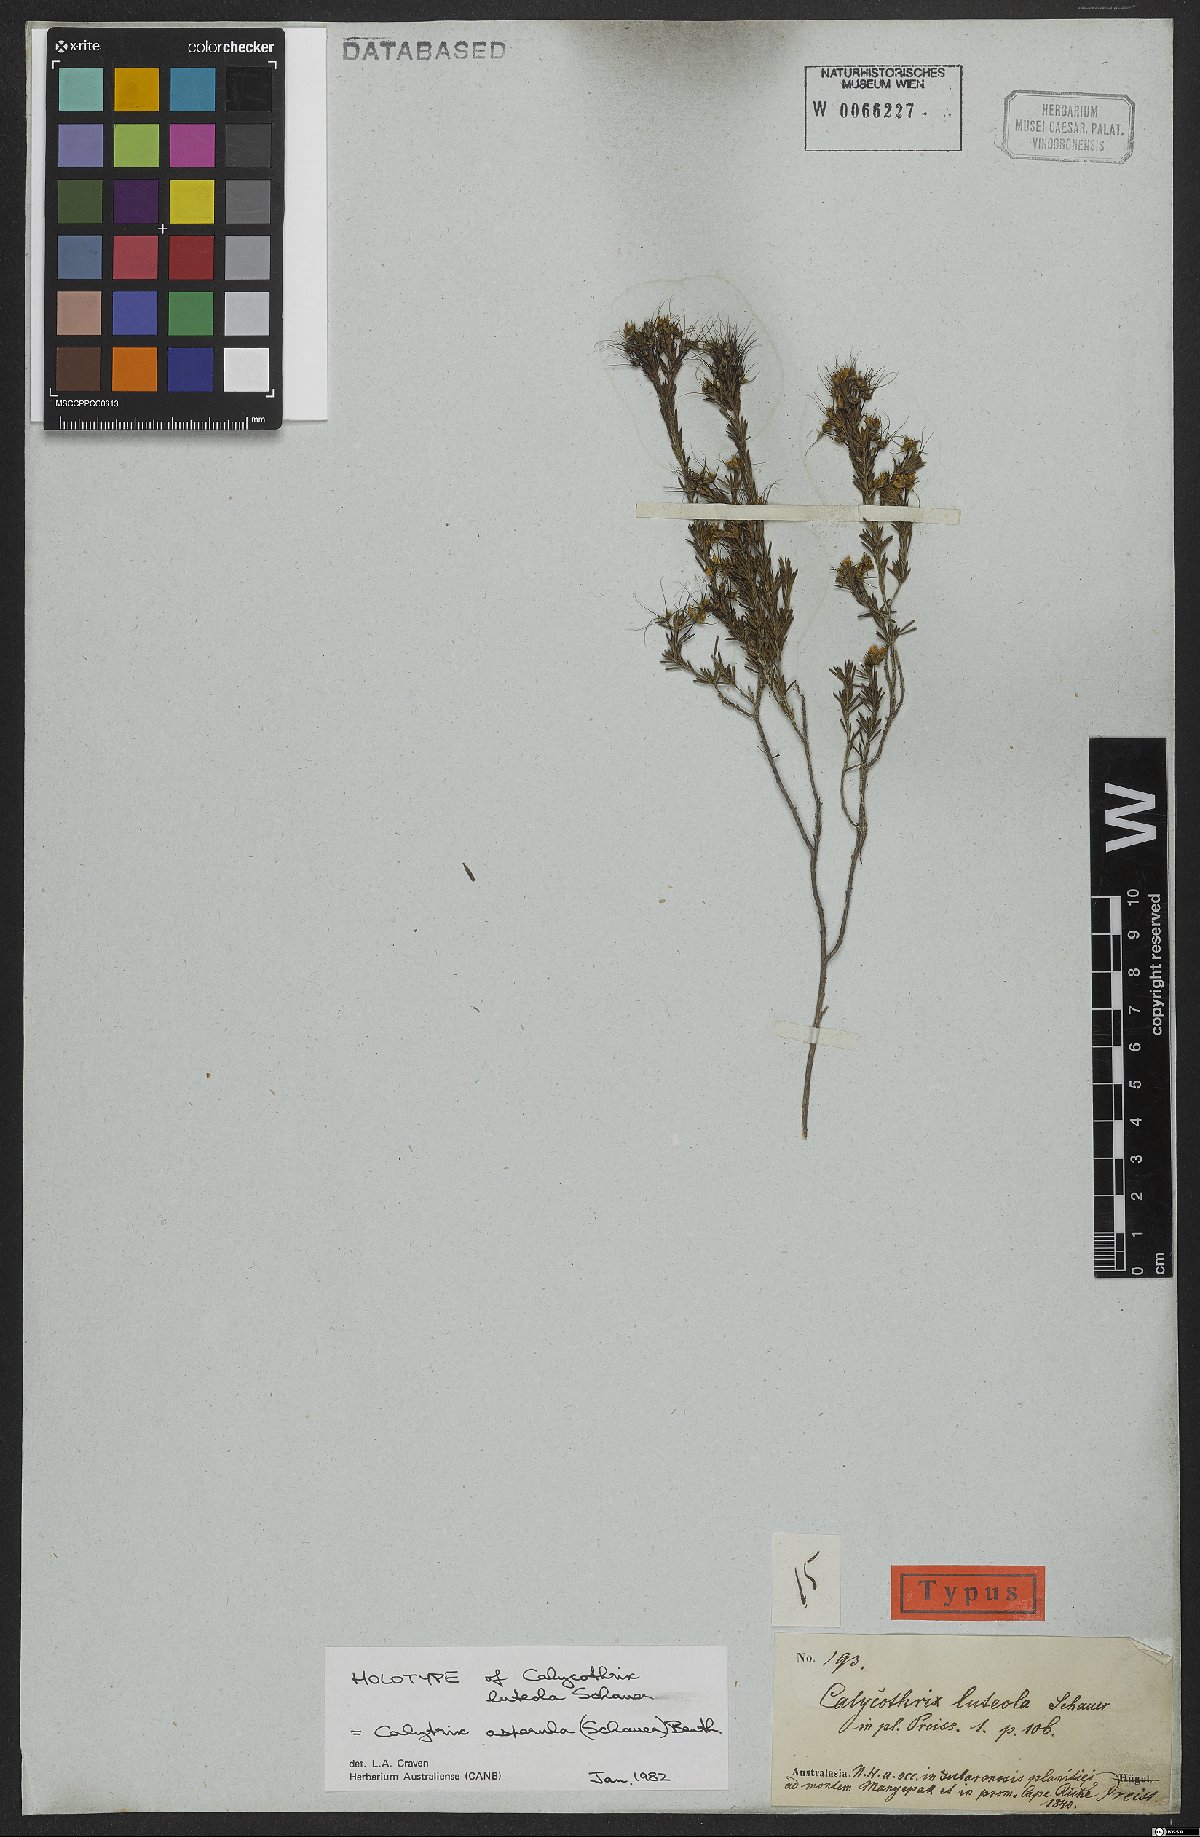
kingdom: Plantae
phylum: Tracheophyta
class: Magnoliopsida
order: Myrtales
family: Myrtaceae
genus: Calytrix
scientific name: Calytrix asperula
